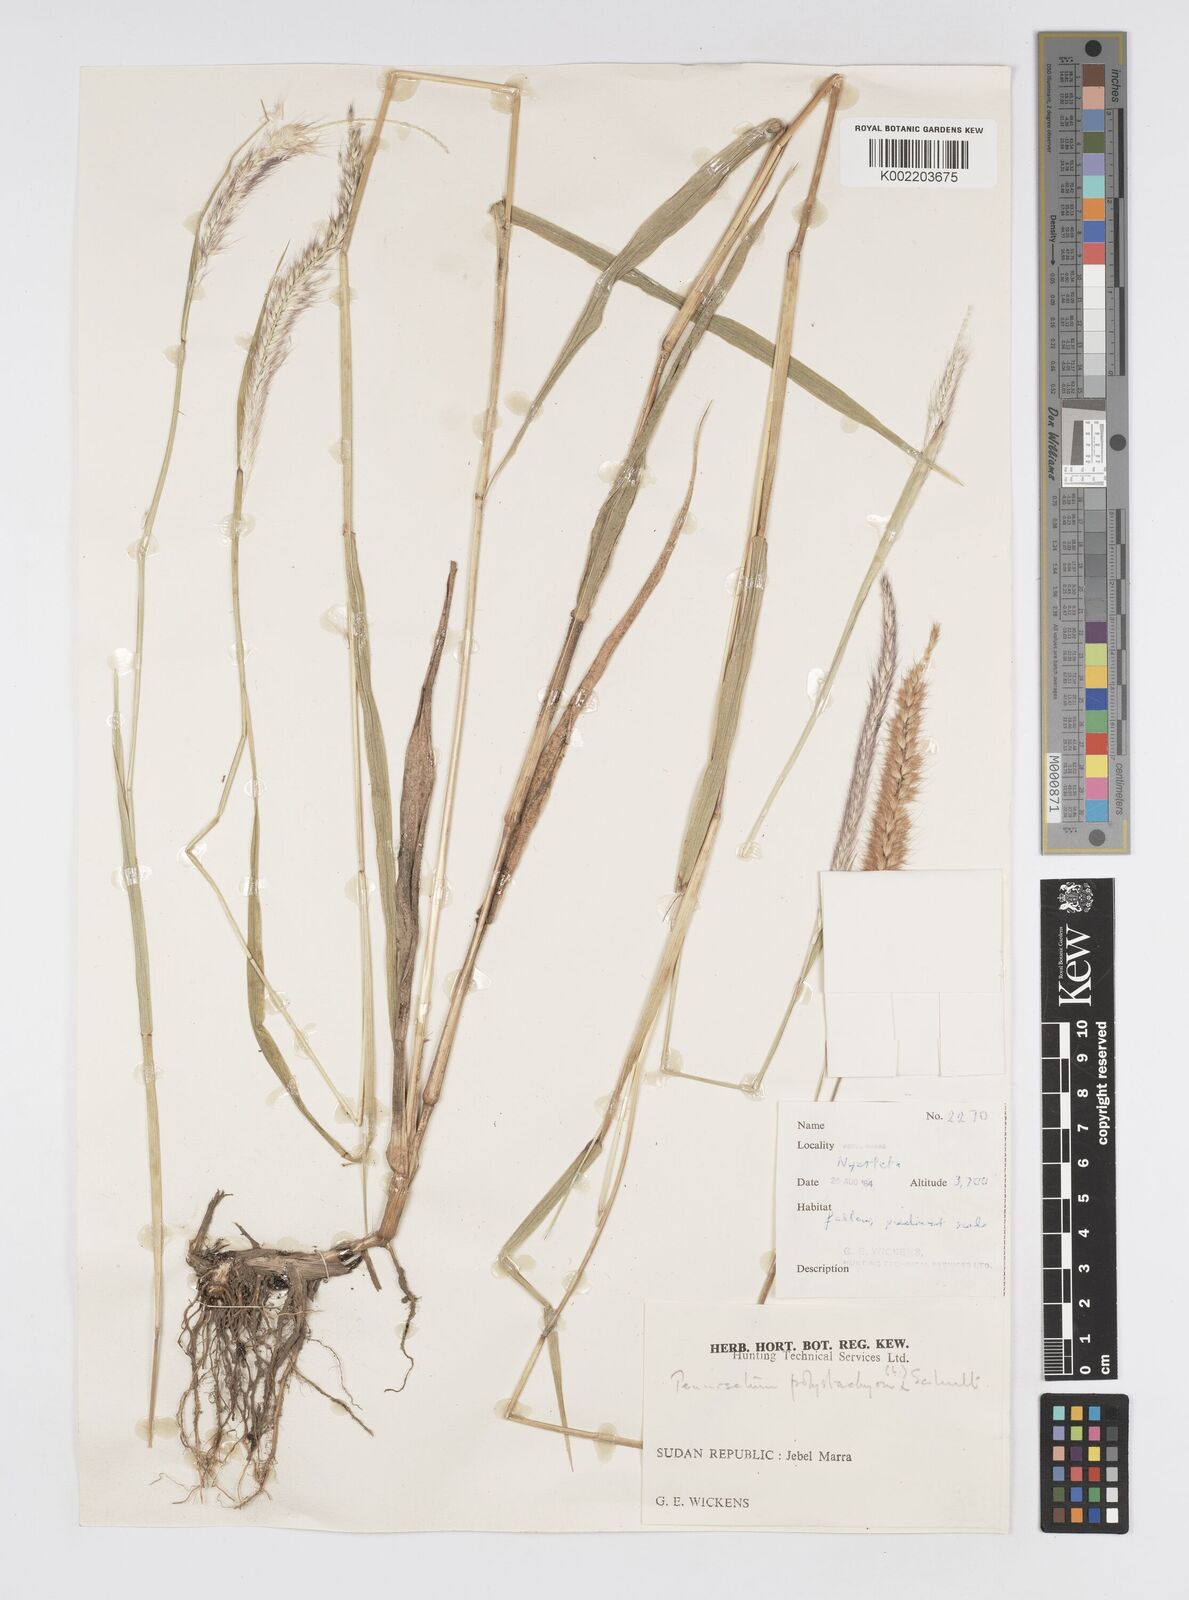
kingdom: Plantae
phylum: Tracheophyta
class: Liliopsida
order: Poales
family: Poaceae
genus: Setaria
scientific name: Setaria parviflora
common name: Knotroot bristle-grass
